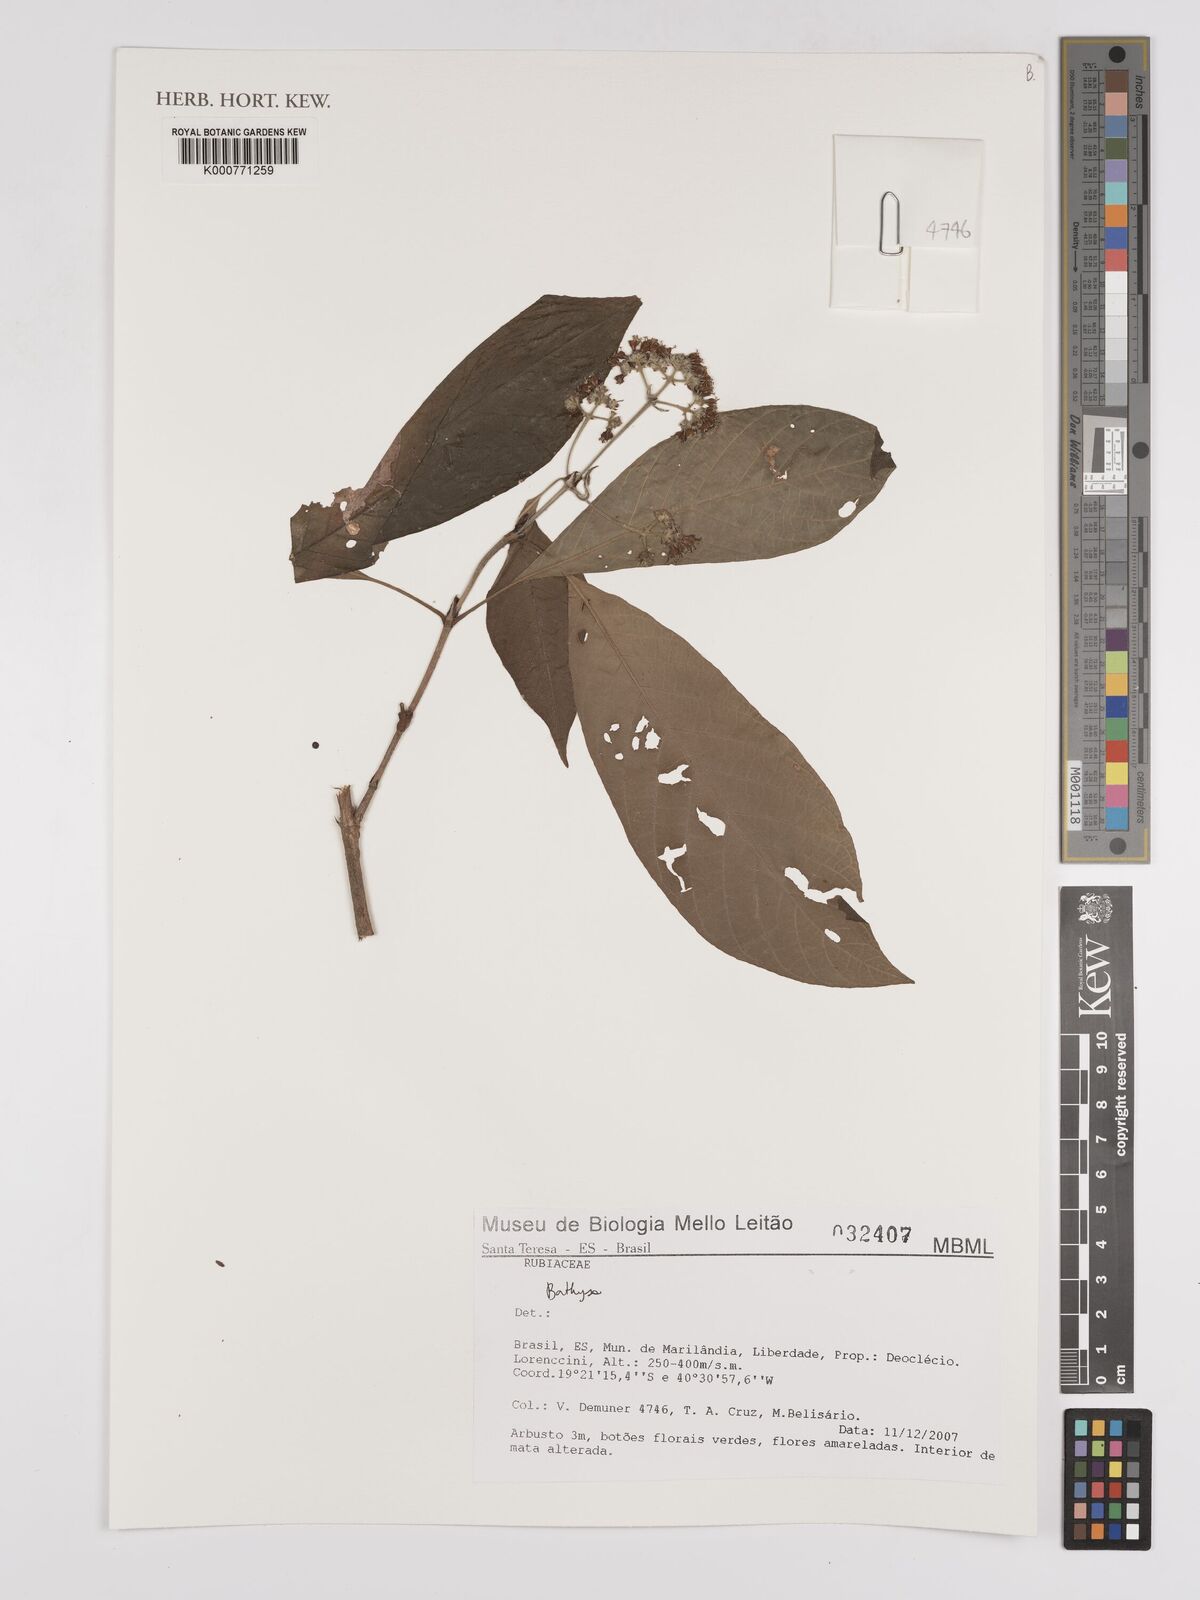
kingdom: Plantae
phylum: Tracheophyta
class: Magnoliopsida
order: Gentianales
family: Rubiaceae
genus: Bathysa
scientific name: Bathysa
